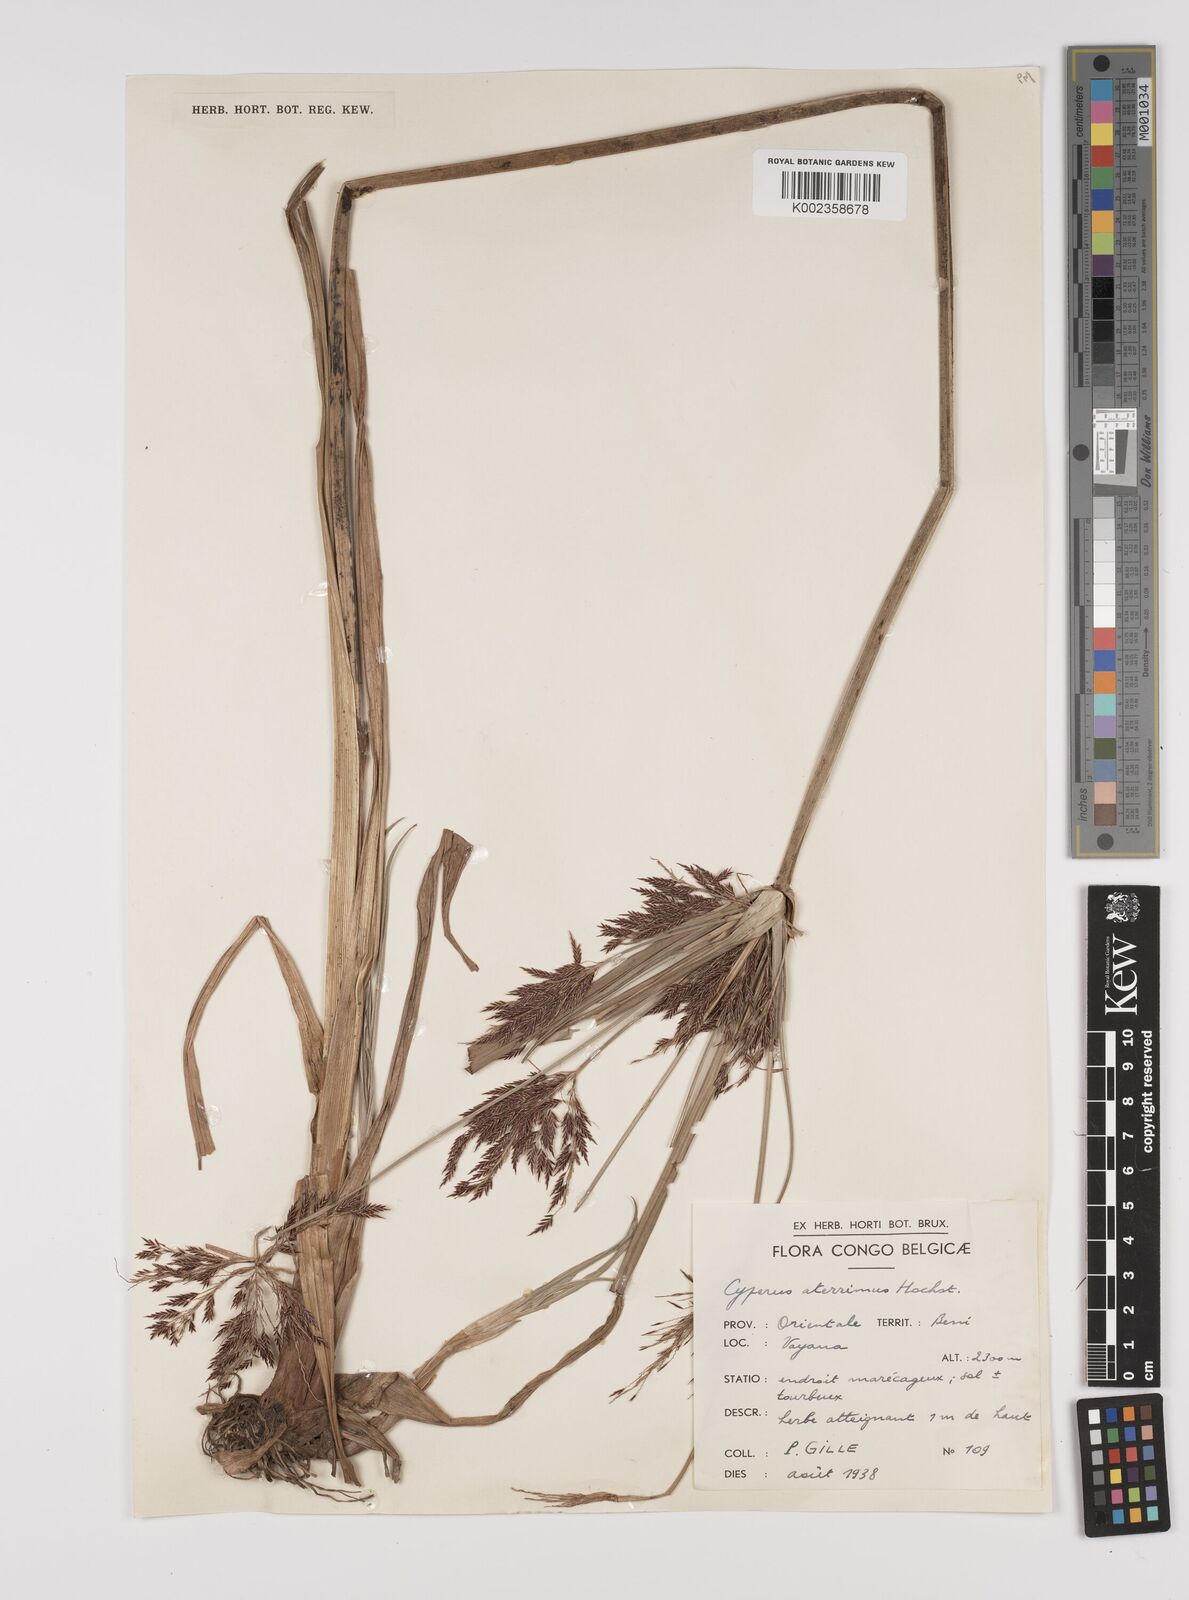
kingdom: Plantae
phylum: Tracheophyta
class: Liliopsida
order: Poales
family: Cyperaceae
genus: Cyperus
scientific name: Cyperus aterrimus
